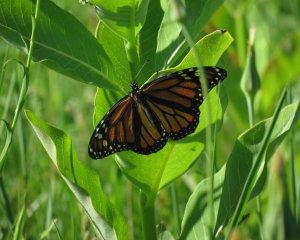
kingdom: Animalia
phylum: Arthropoda
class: Insecta
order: Lepidoptera
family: Nymphalidae
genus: Danaus
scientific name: Danaus plexippus
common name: Monarch
